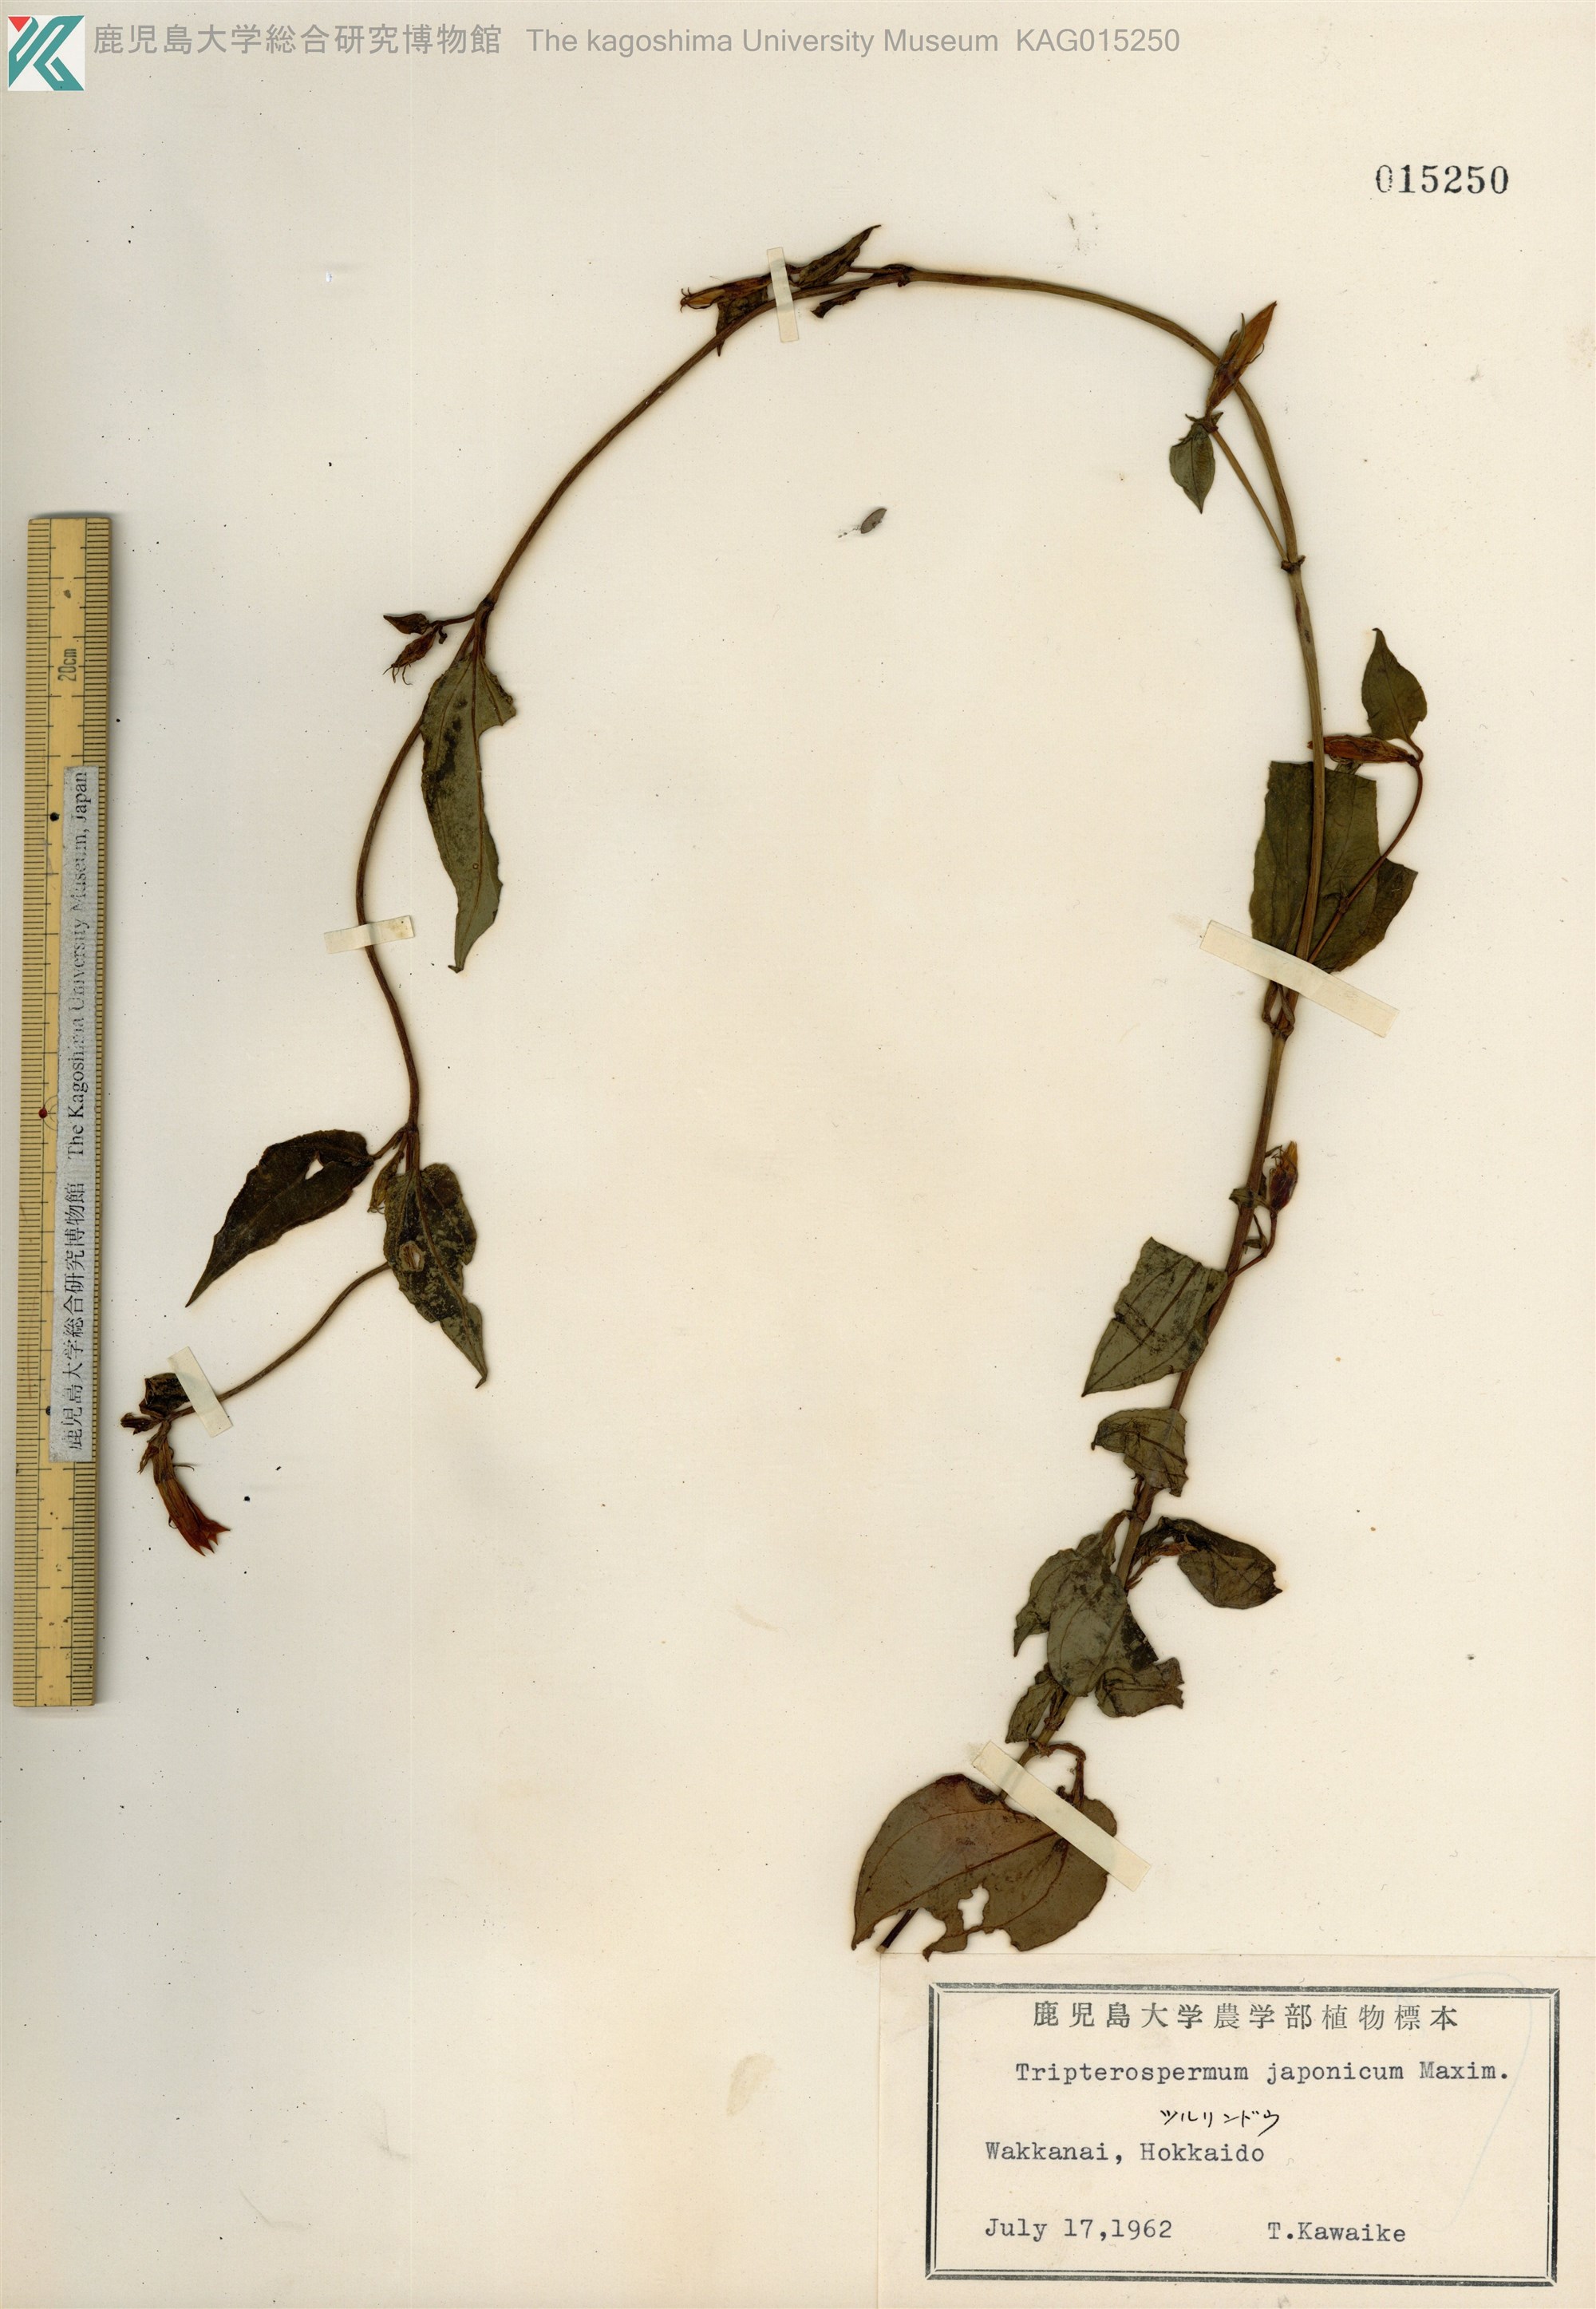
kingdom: Plantae
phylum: Tracheophyta
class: Magnoliopsida
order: Gentianales
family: Gentianaceae
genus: Tripterospermum
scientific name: Tripterospermum trinervium
